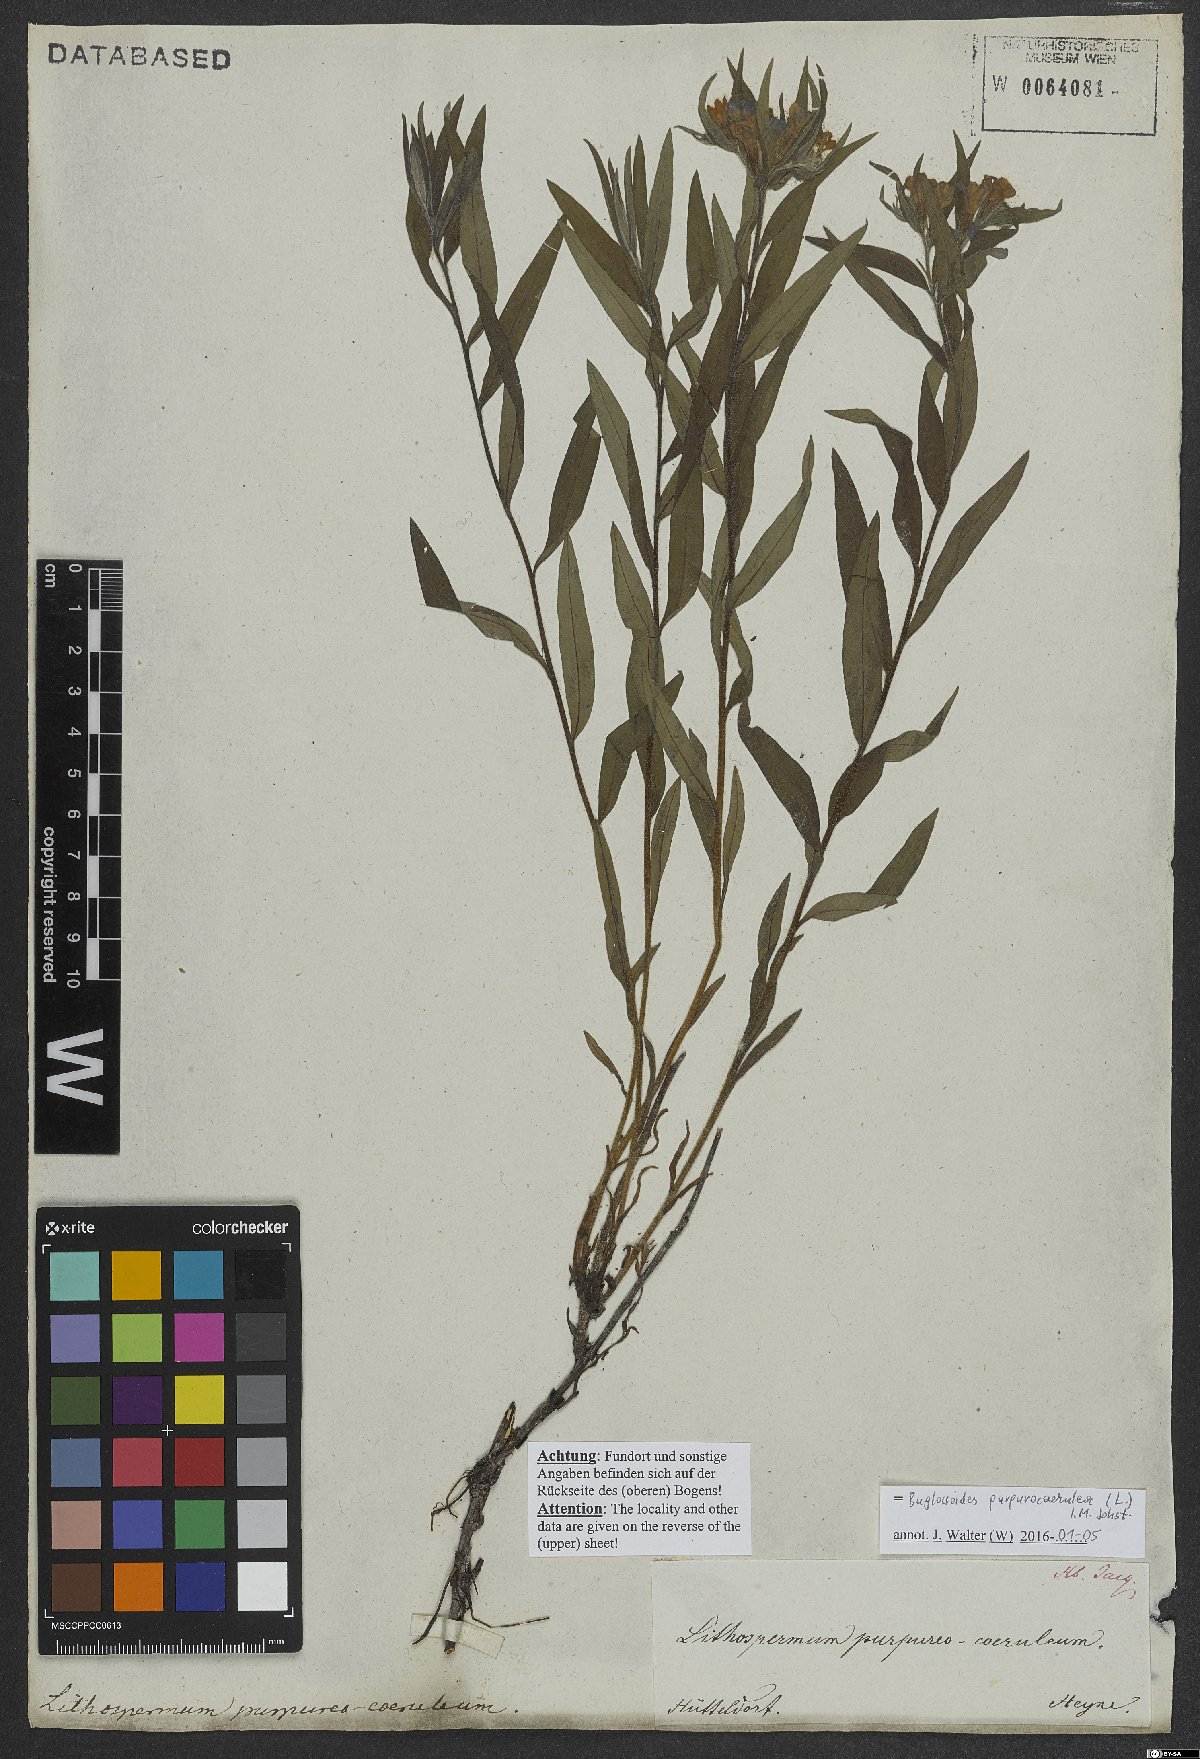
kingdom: Plantae
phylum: Tracheophyta
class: Magnoliopsida
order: Boraginales
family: Boraginaceae
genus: Aegonychon
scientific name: Aegonychon purpurocaeruleum
